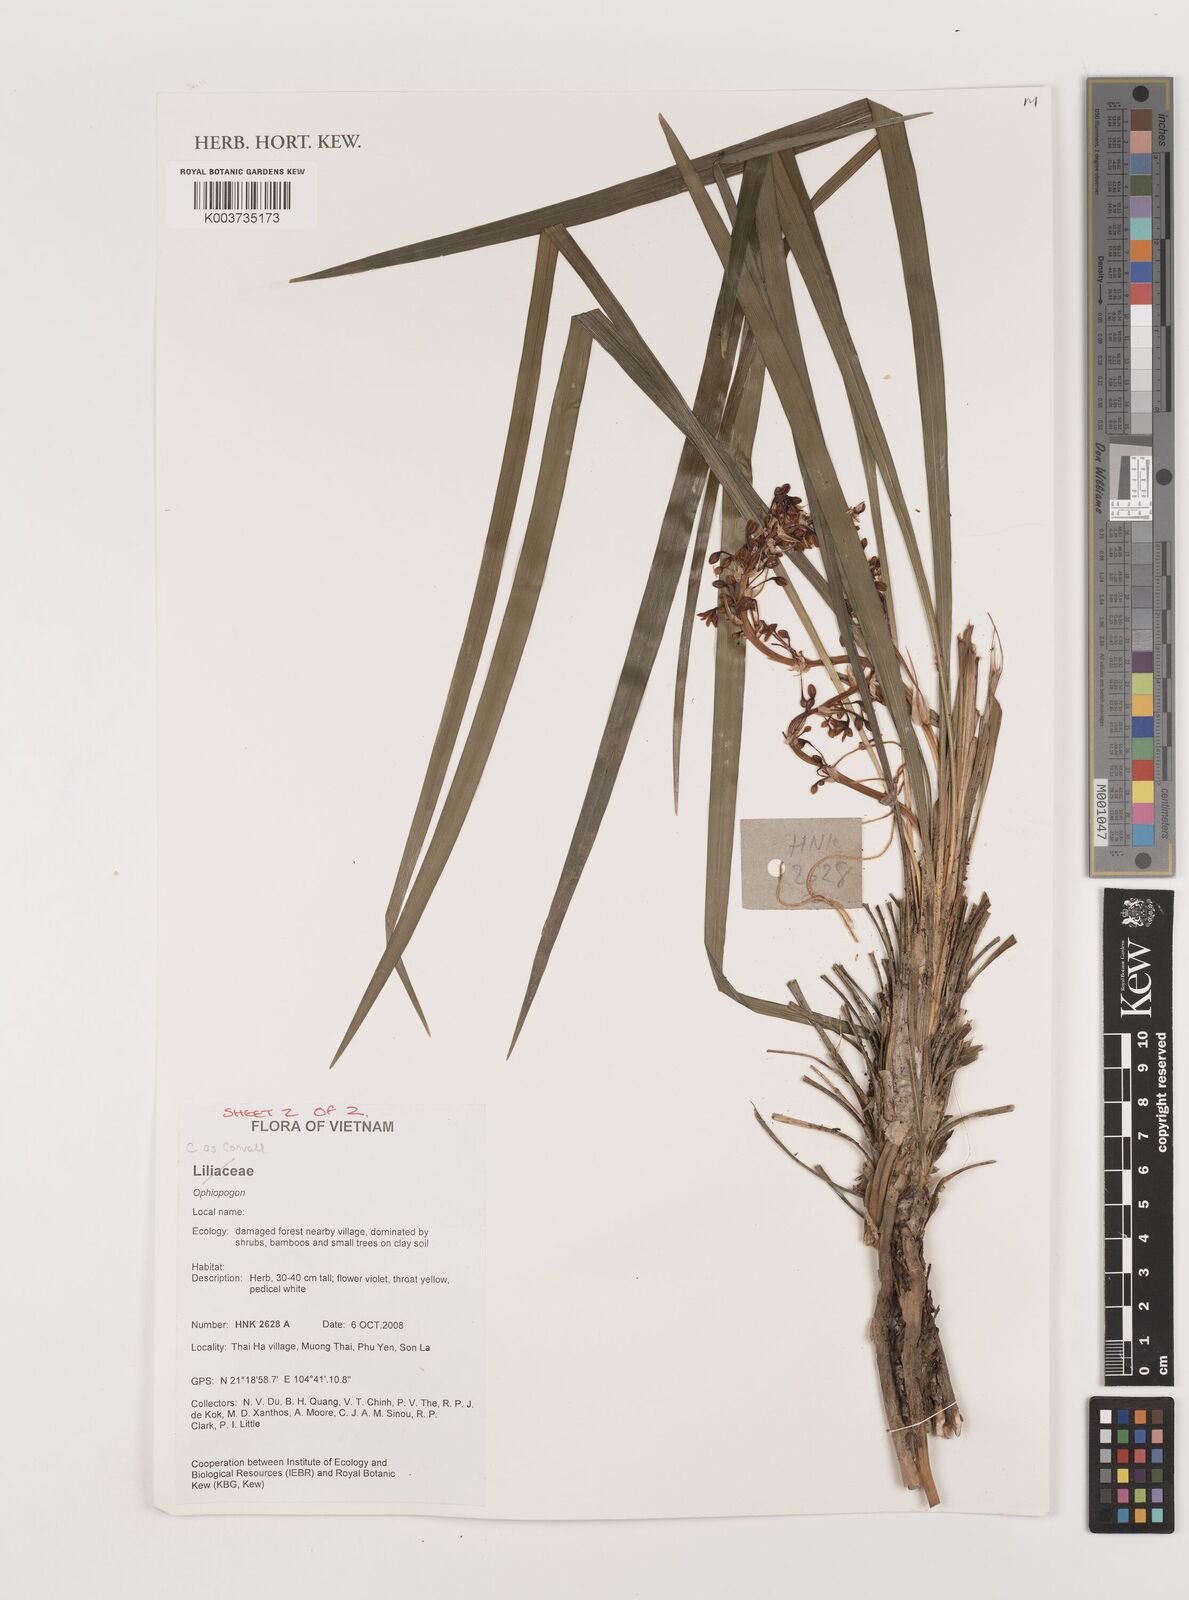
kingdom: Plantae
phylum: Tracheophyta
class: Liliopsida
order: Asparagales
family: Asparagaceae
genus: Ophiopogon
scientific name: Ophiopogon
